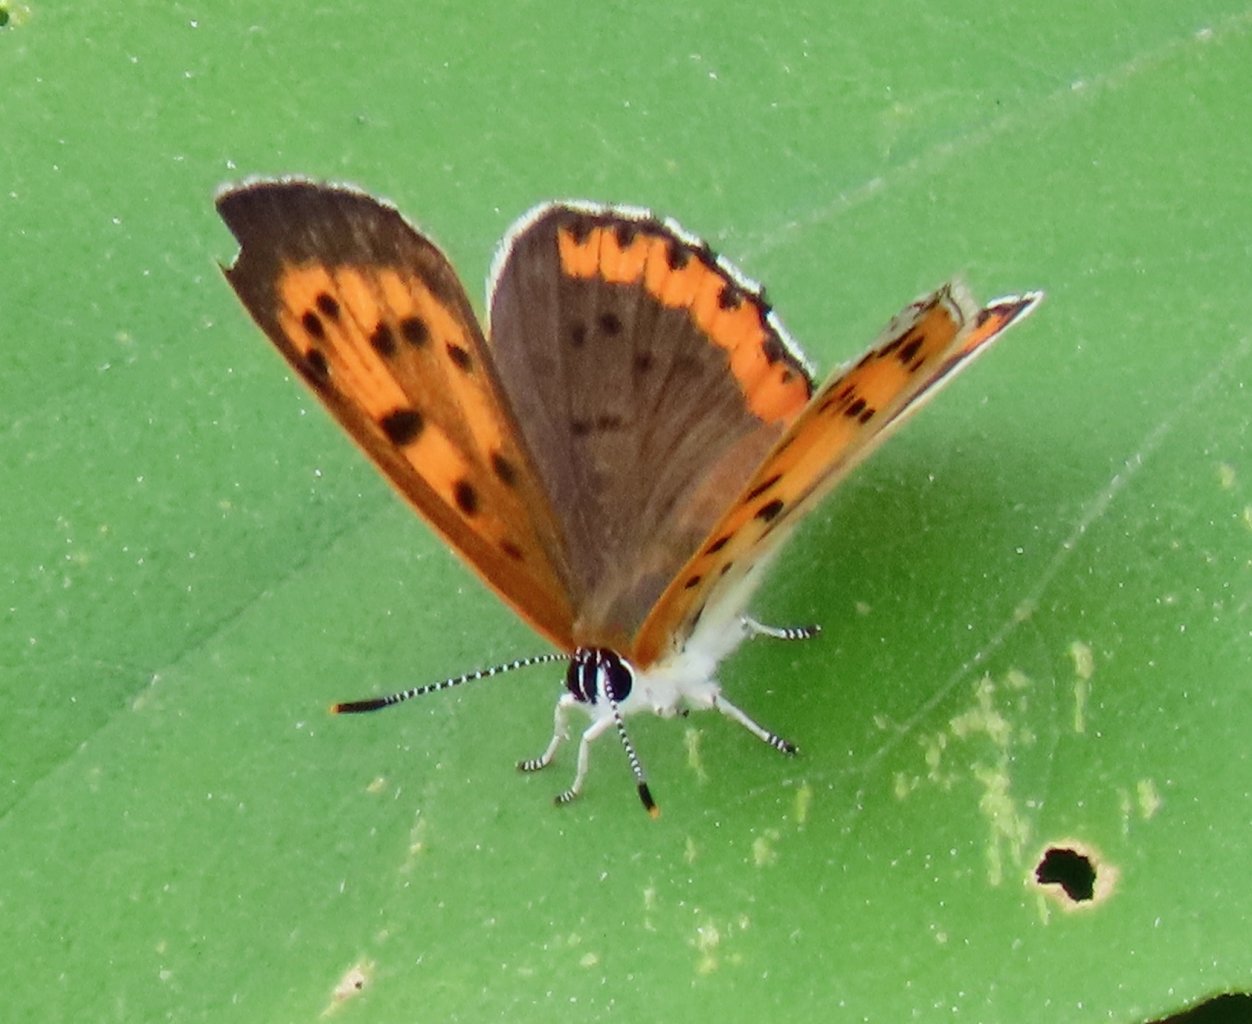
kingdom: Animalia
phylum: Arthropoda
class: Insecta
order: Lepidoptera
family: Sesiidae
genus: Sesia
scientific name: Sesia Lycaena hyllus
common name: Bronze Copper
